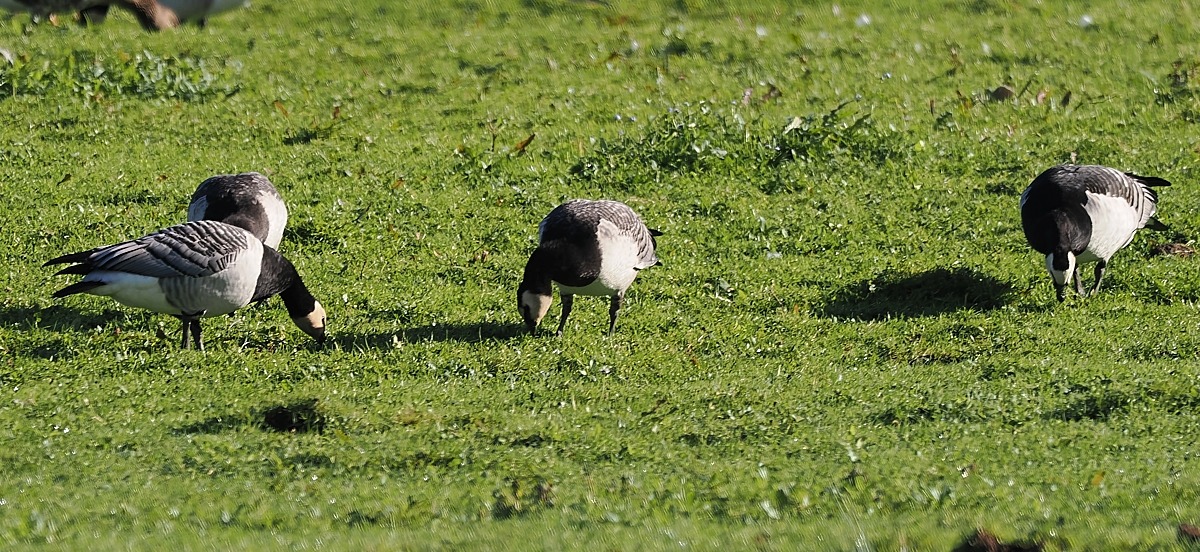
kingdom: Animalia
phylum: Chordata
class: Aves
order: Anseriformes
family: Anatidae
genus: Branta
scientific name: Branta leucopsis
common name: Bramgås
